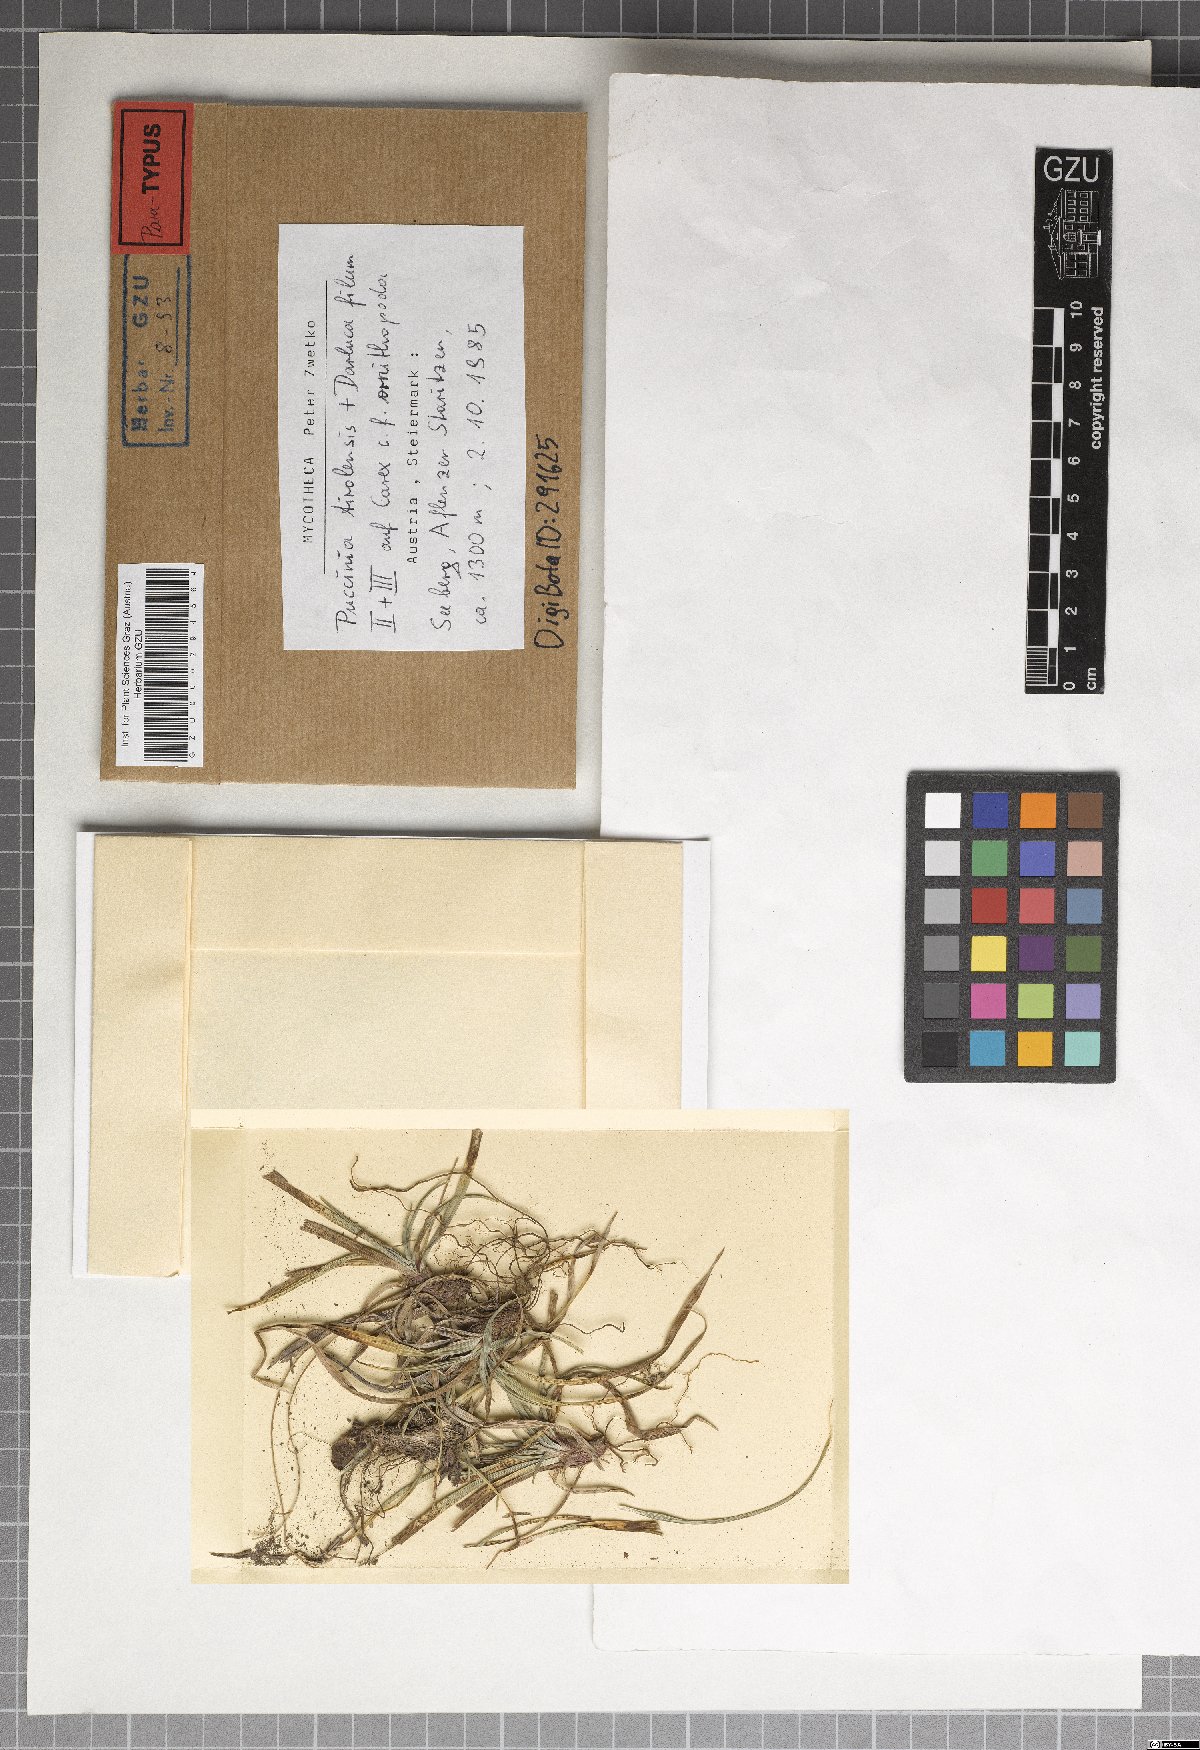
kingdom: Fungi
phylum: Basidiomycota
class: Pucciniomycetes
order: Pucciniales
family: Pucciniaceae
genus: Puccinia
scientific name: Puccinia tirolensis
